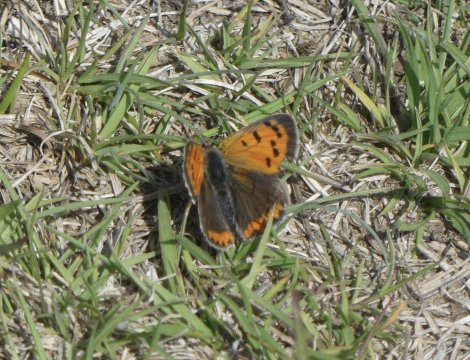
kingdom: Animalia
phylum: Arthropoda
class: Insecta
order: Lepidoptera
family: Lycaenidae
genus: Lycaena
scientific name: Lycaena phlaeas
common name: American Copper
